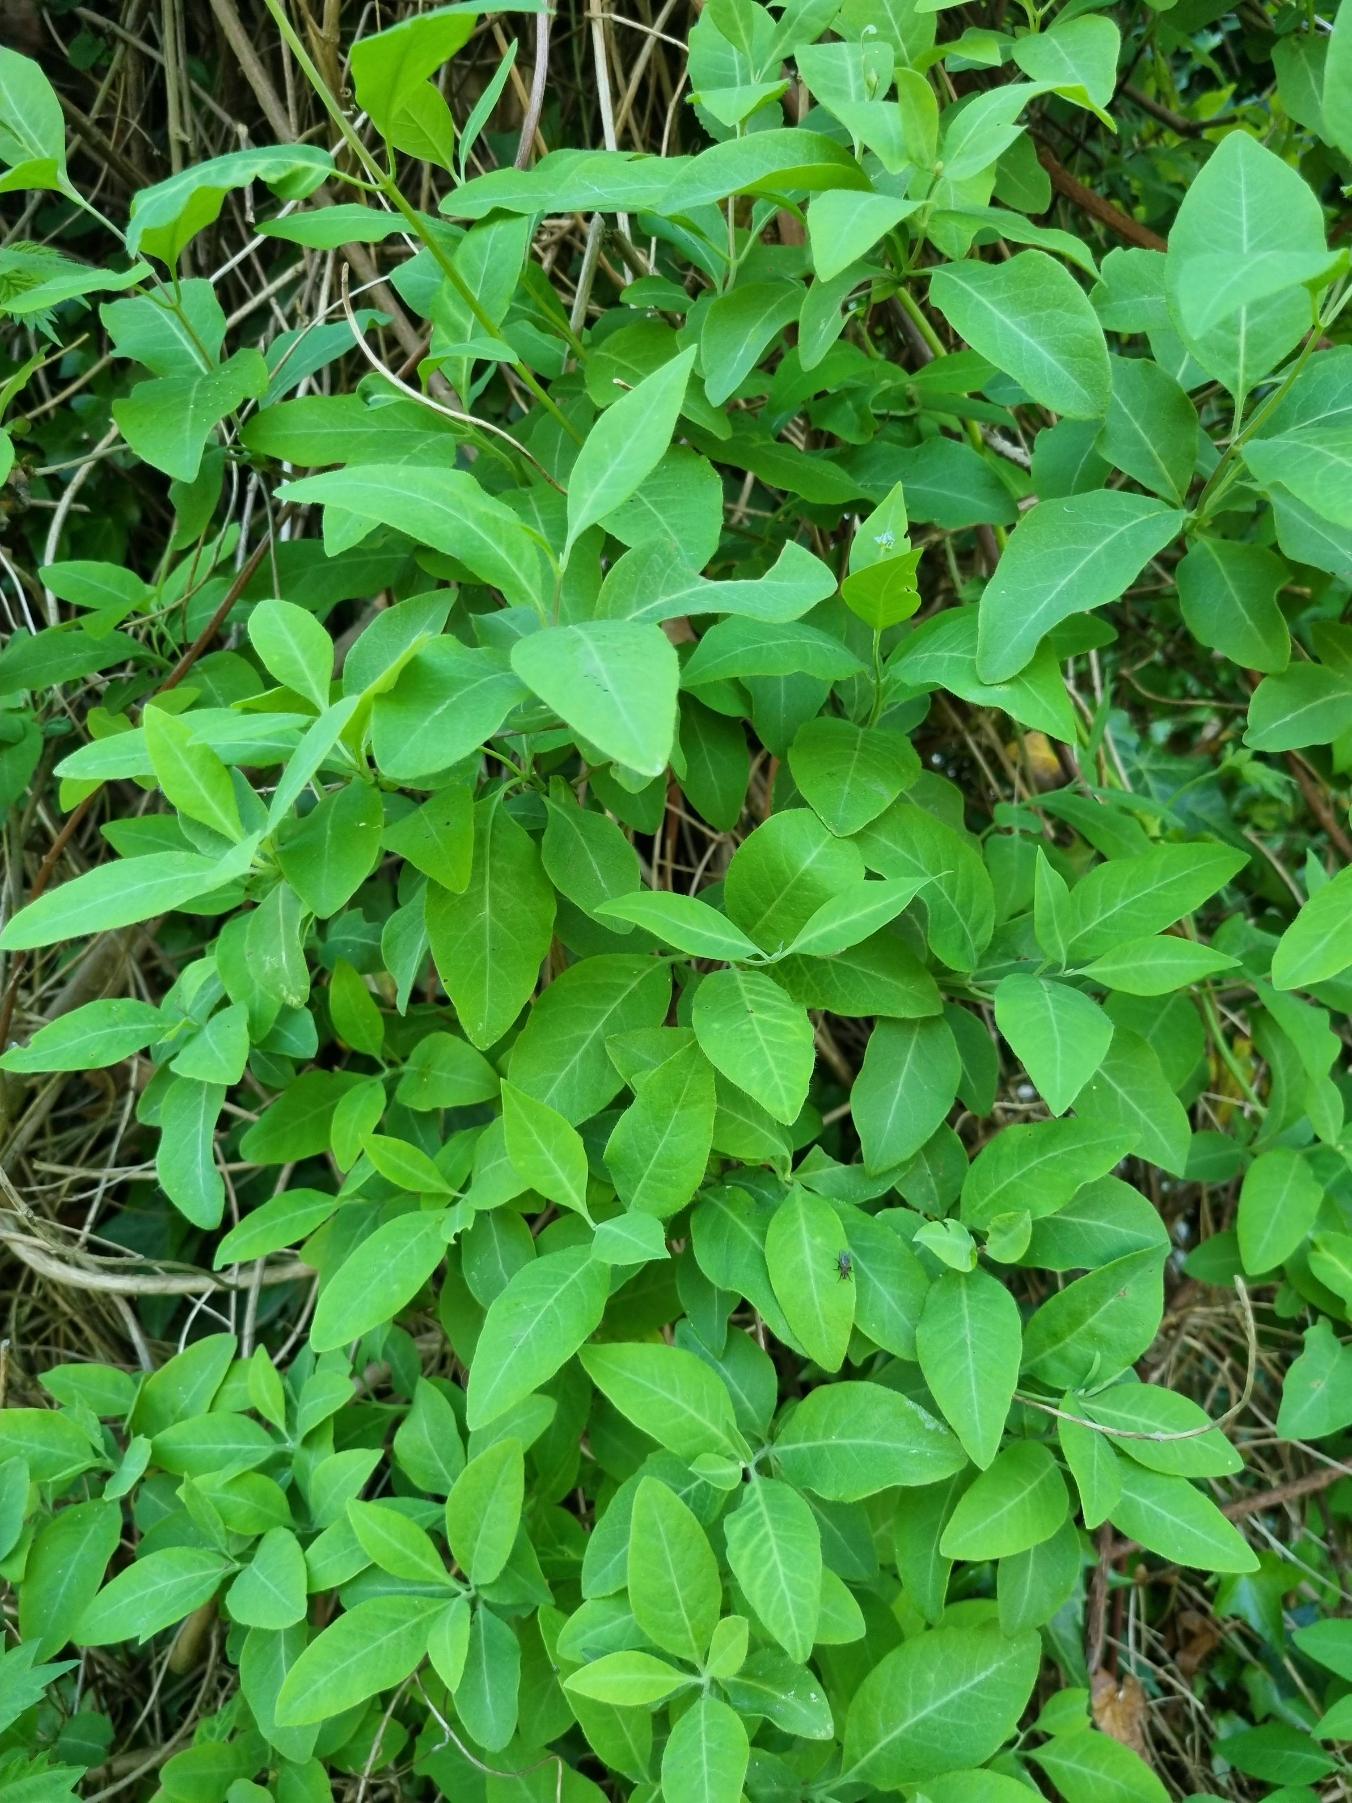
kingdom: Plantae
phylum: Tracheophyta
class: Magnoliopsida
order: Dipsacales
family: Caprifoliaceae
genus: Lonicera
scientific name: Lonicera periclymenum
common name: Almindelig gedeblad
